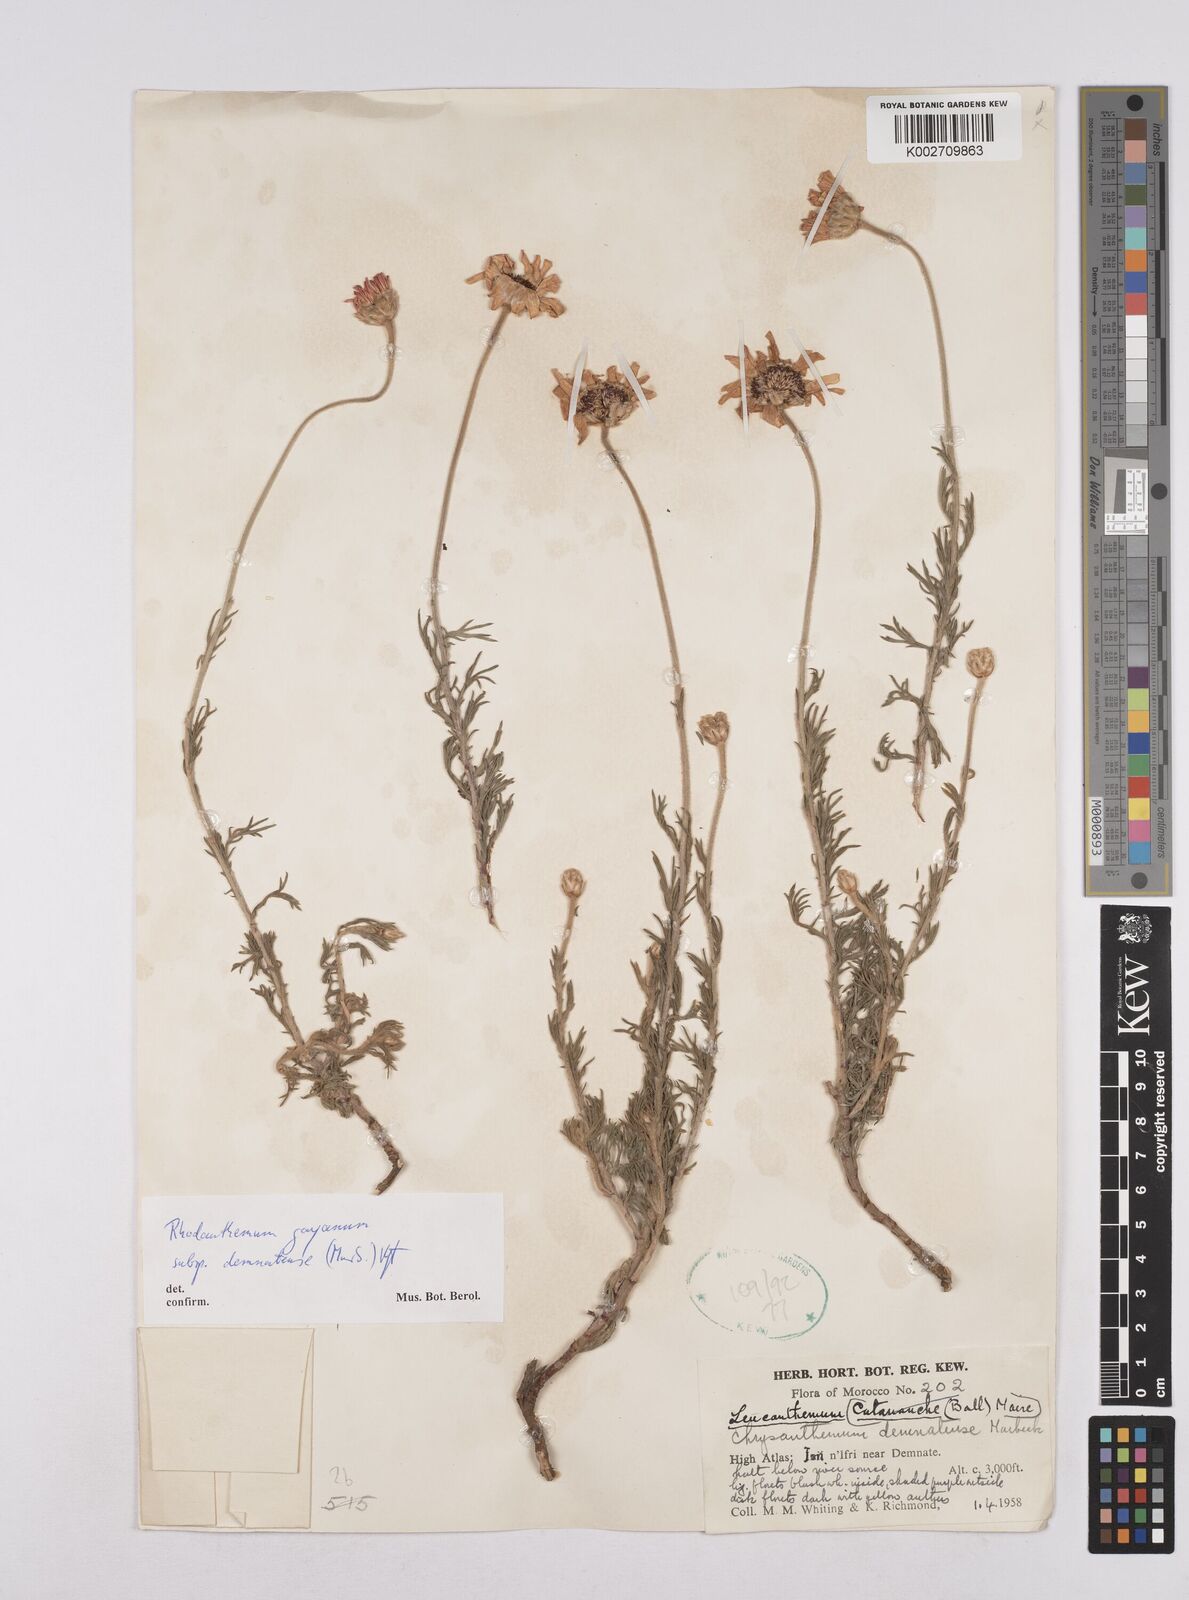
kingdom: Plantae
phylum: Tracheophyta
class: Magnoliopsida
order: Asterales
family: Asteraceae
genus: Rhodanthemum
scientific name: Rhodanthemum gayanum
